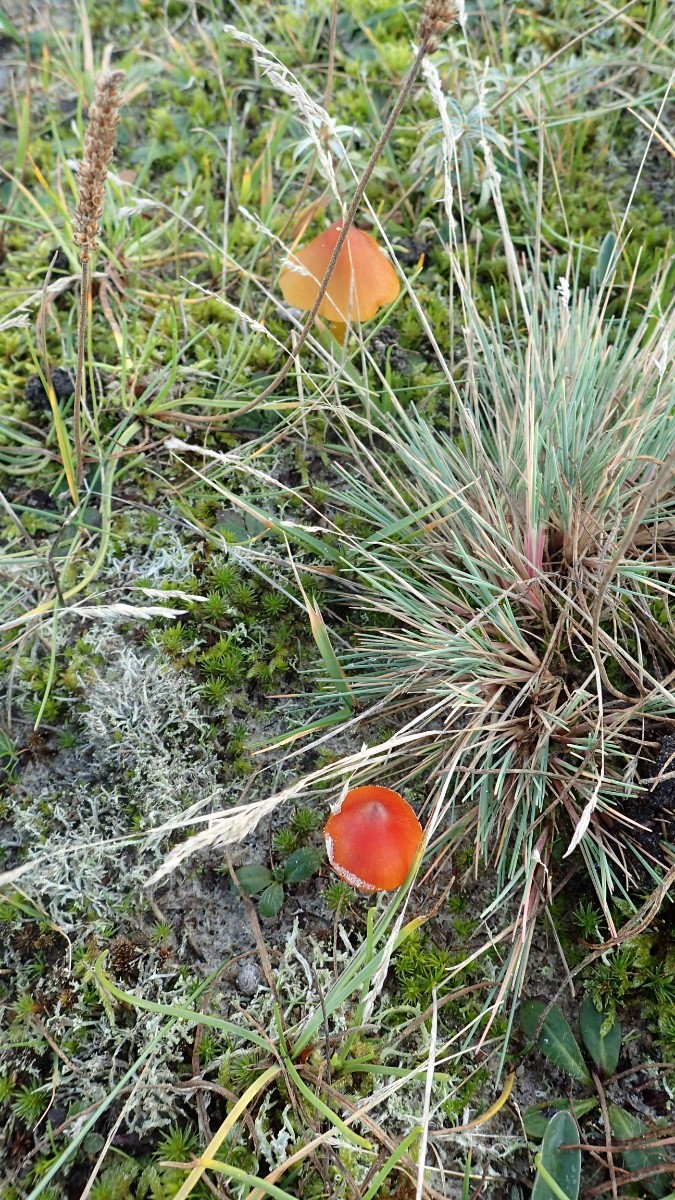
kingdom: Fungi
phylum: Basidiomycota
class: Agaricomycetes
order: Agaricales
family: Hygrophoraceae
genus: Hygrocybe
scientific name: Hygrocybe conica
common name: kegle-vokshat
